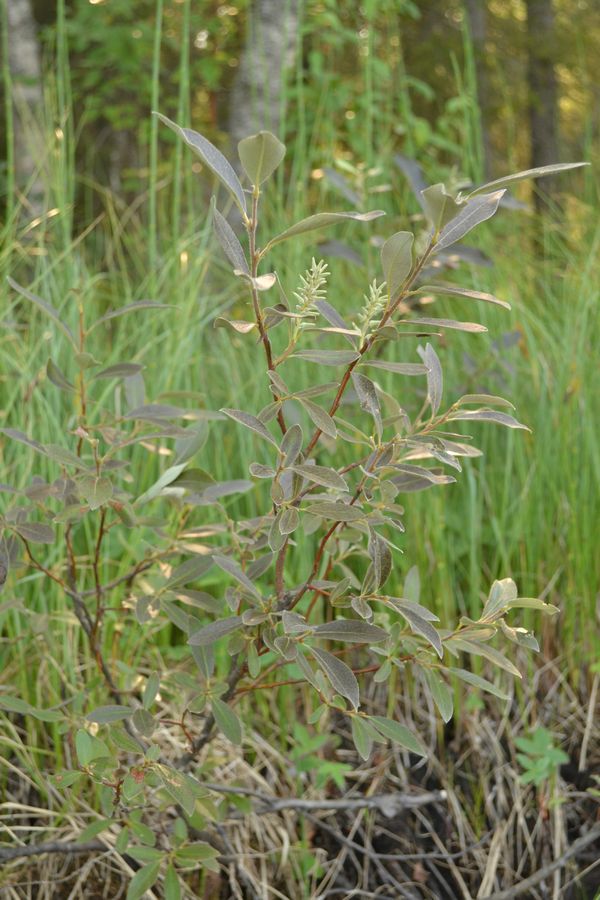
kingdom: Plantae
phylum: Tracheophyta
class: Magnoliopsida
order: Malpighiales
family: Salicaceae
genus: Salix
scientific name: Salix lapponum
